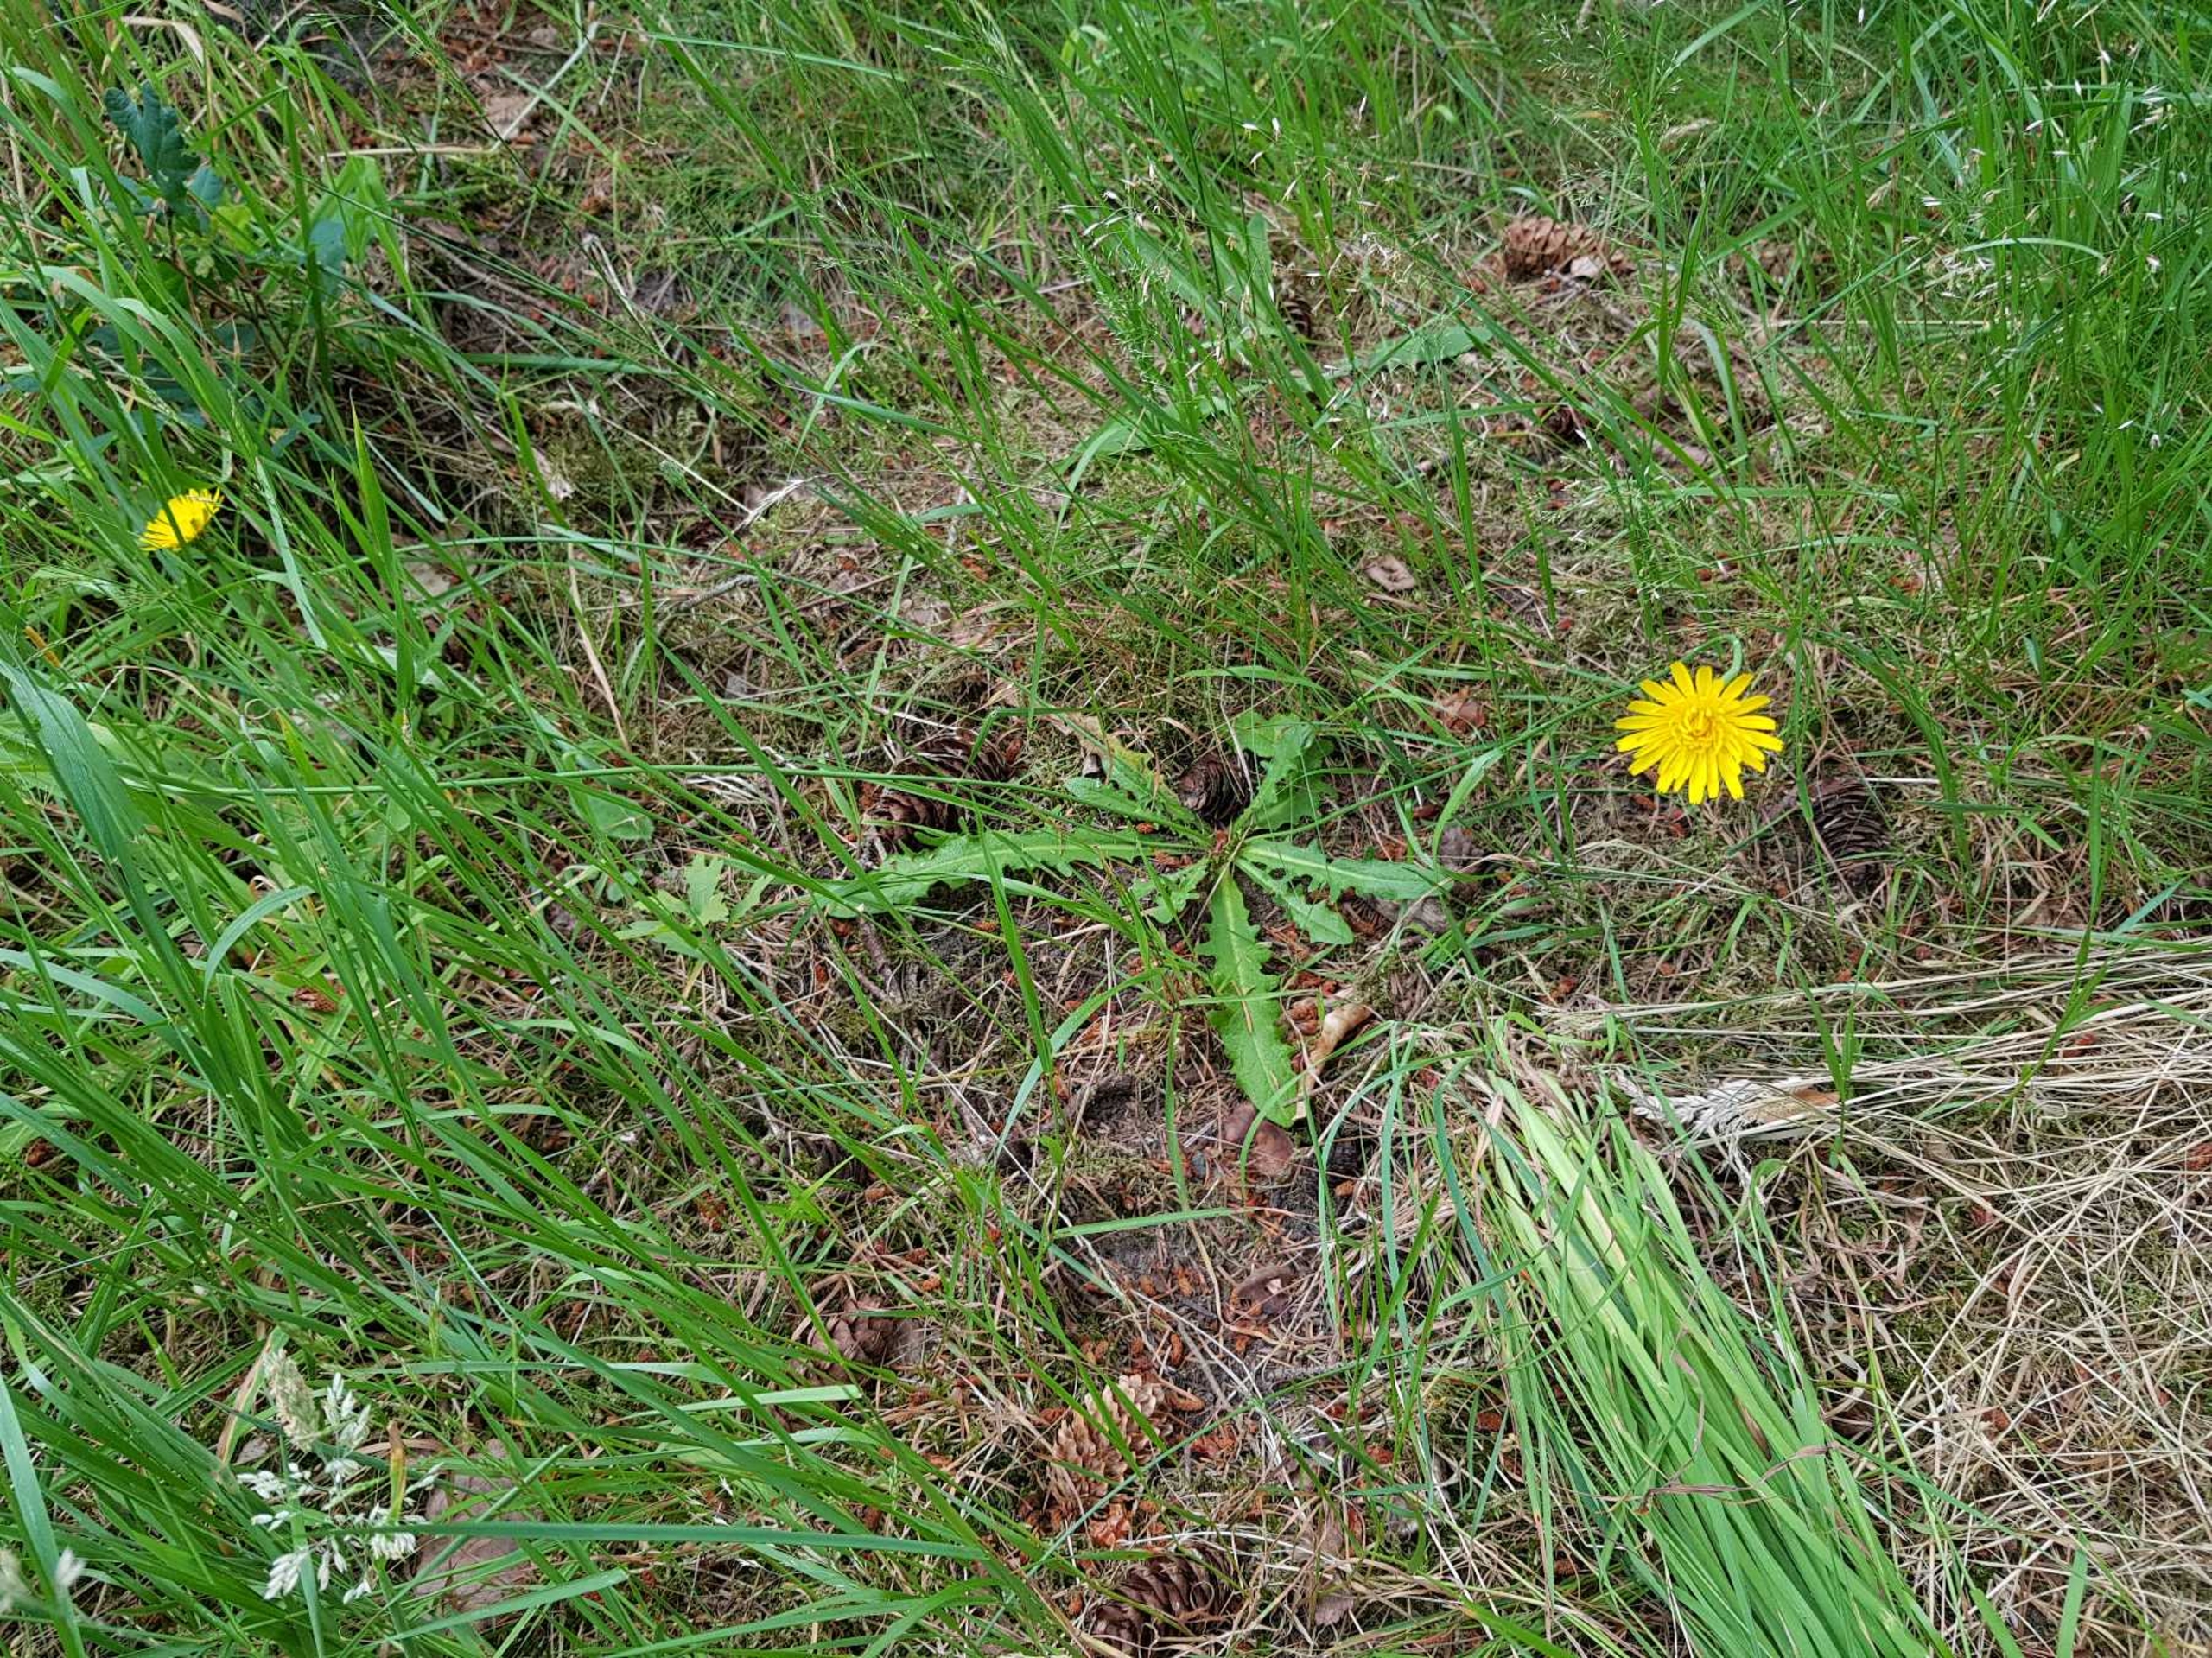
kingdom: Plantae
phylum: Tracheophyta
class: Magnoliopsida
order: Asterales
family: Asteraceae
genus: Hypochaeris
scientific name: Hypochaeris radicata
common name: Almindelig kongepen
